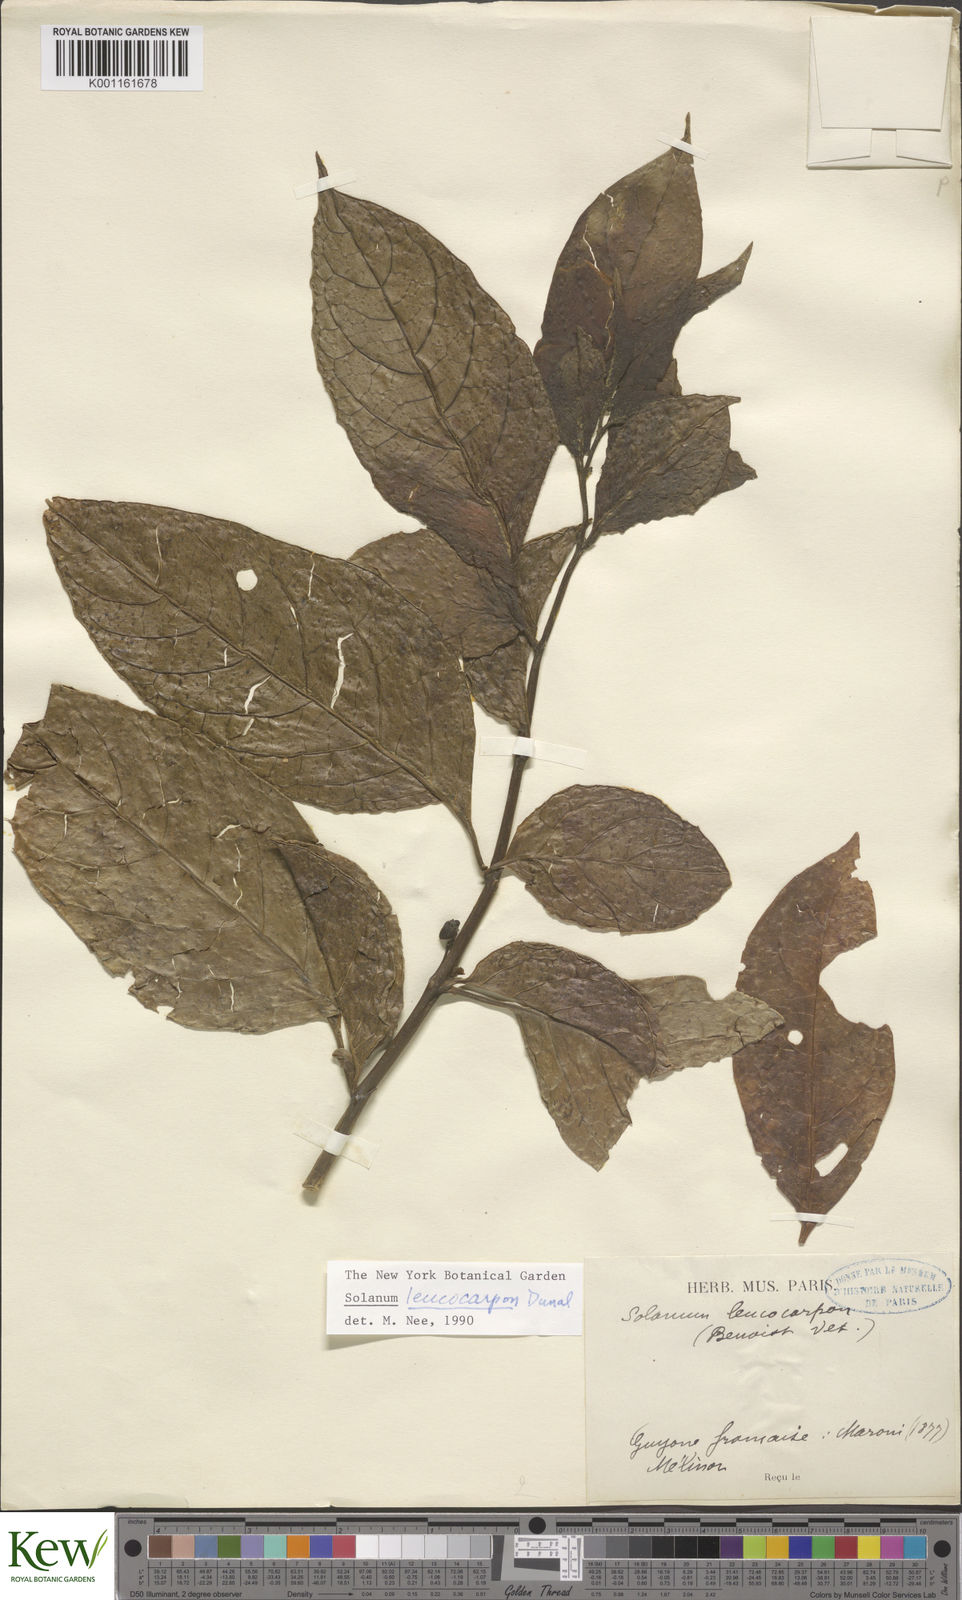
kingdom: Plantae
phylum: Tracheophyta
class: Magnoliopsida
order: Solanales
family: Solanaceae
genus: Solanum
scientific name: Solanum leucocarpon
